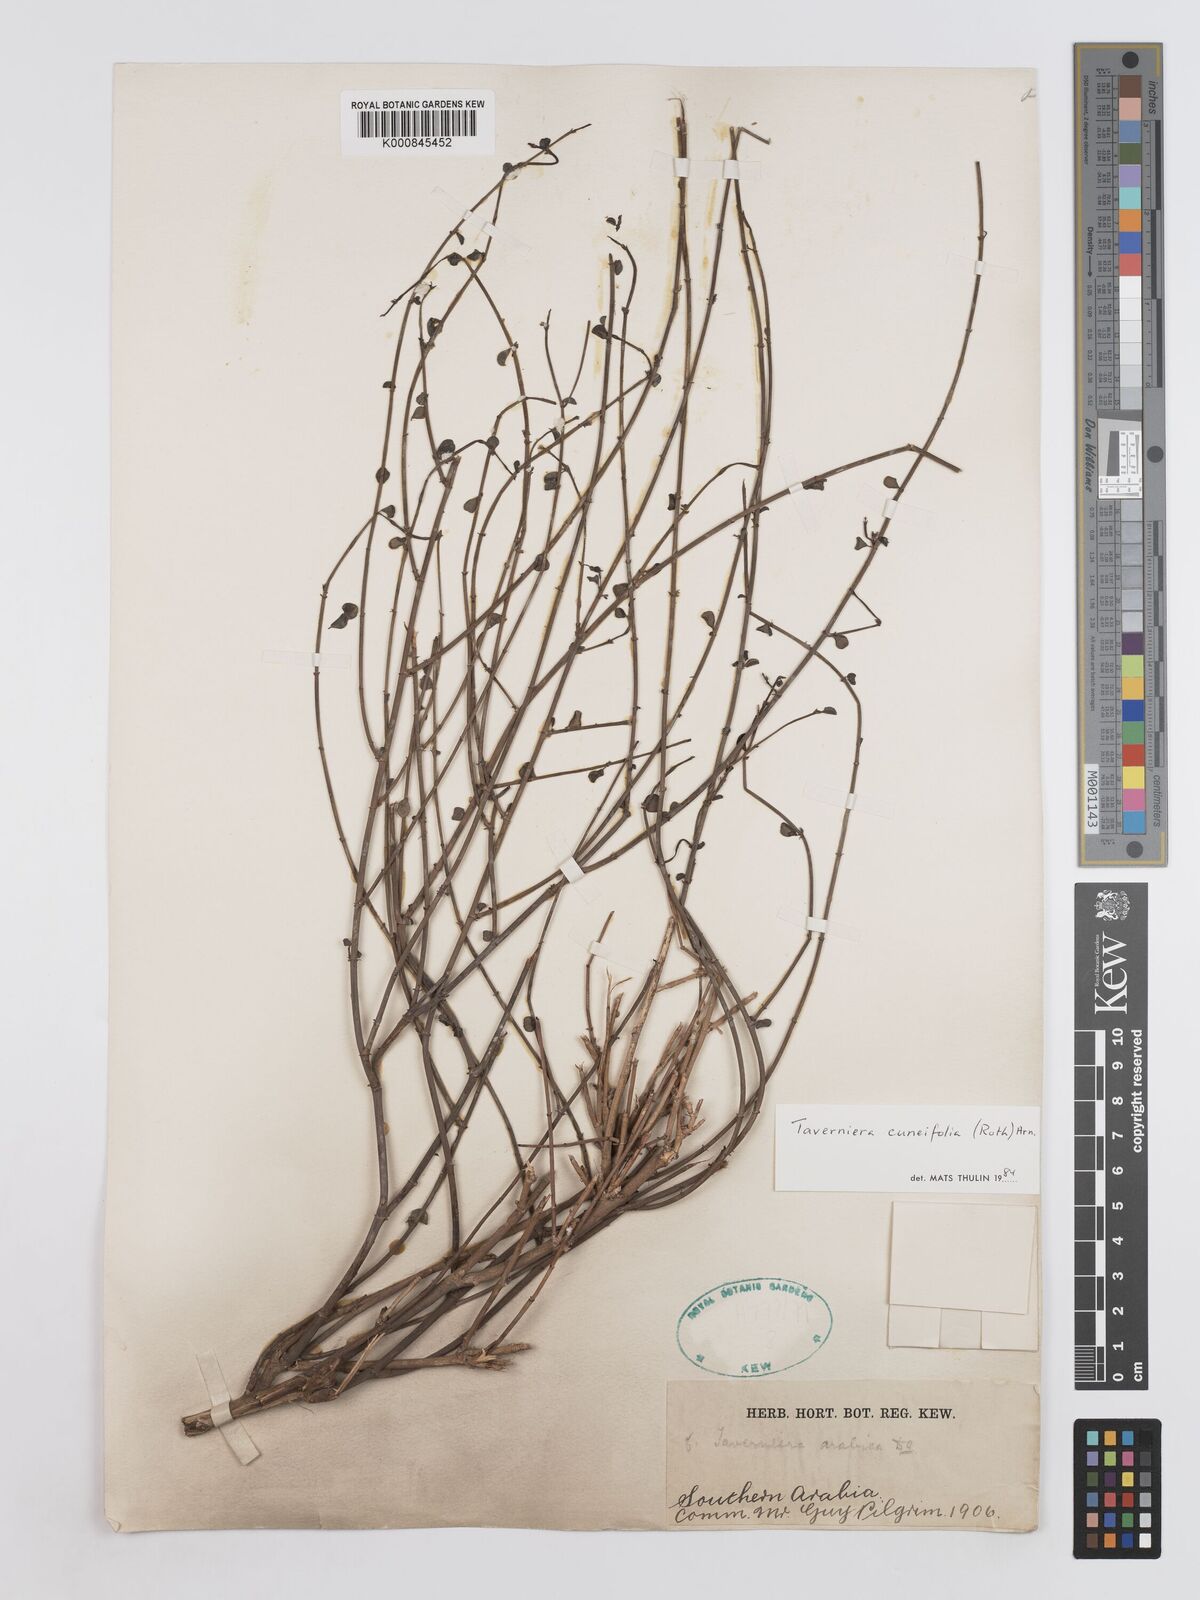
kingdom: Plantae
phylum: Tracheophyta
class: Magnoliopsida
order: Fabales
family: Fabaceae
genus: Taverniera
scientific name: Taverniera
